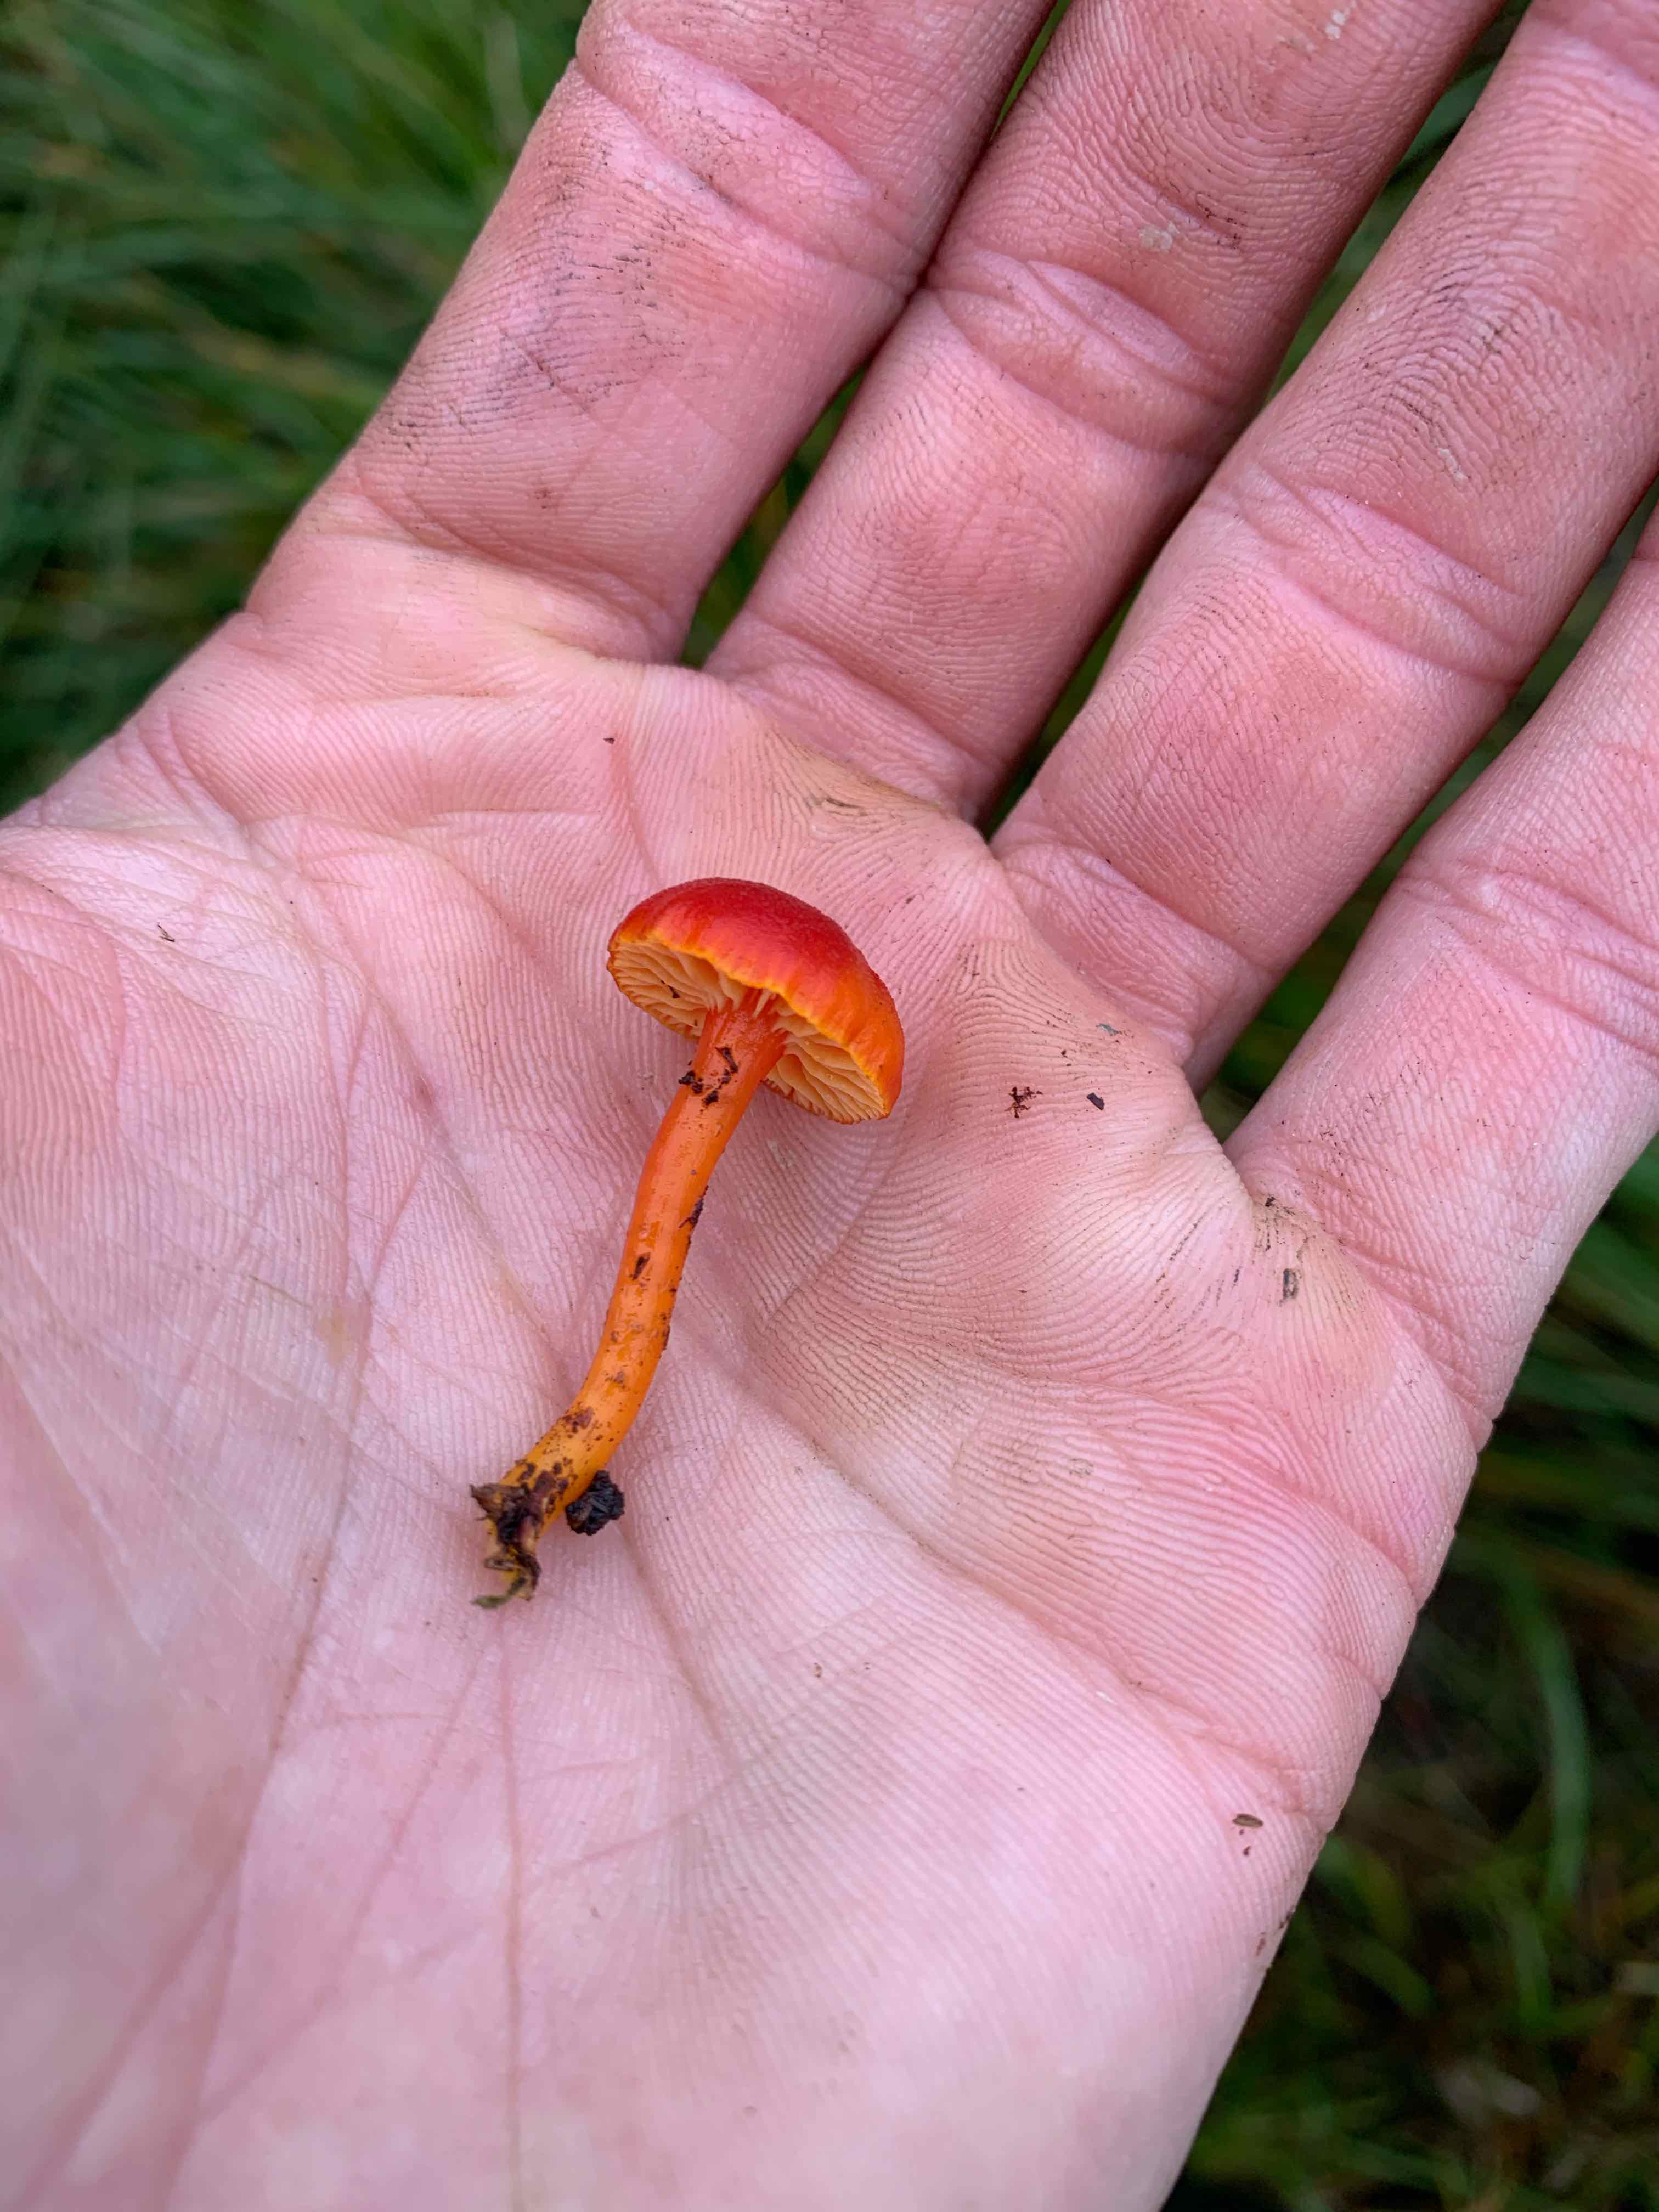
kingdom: Fungi
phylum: Basidiomycota
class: Agaricomycetes
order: Agaricales
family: Hygrophoraceae
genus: Hygrocybe
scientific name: Hygrocybe
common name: vokshat
